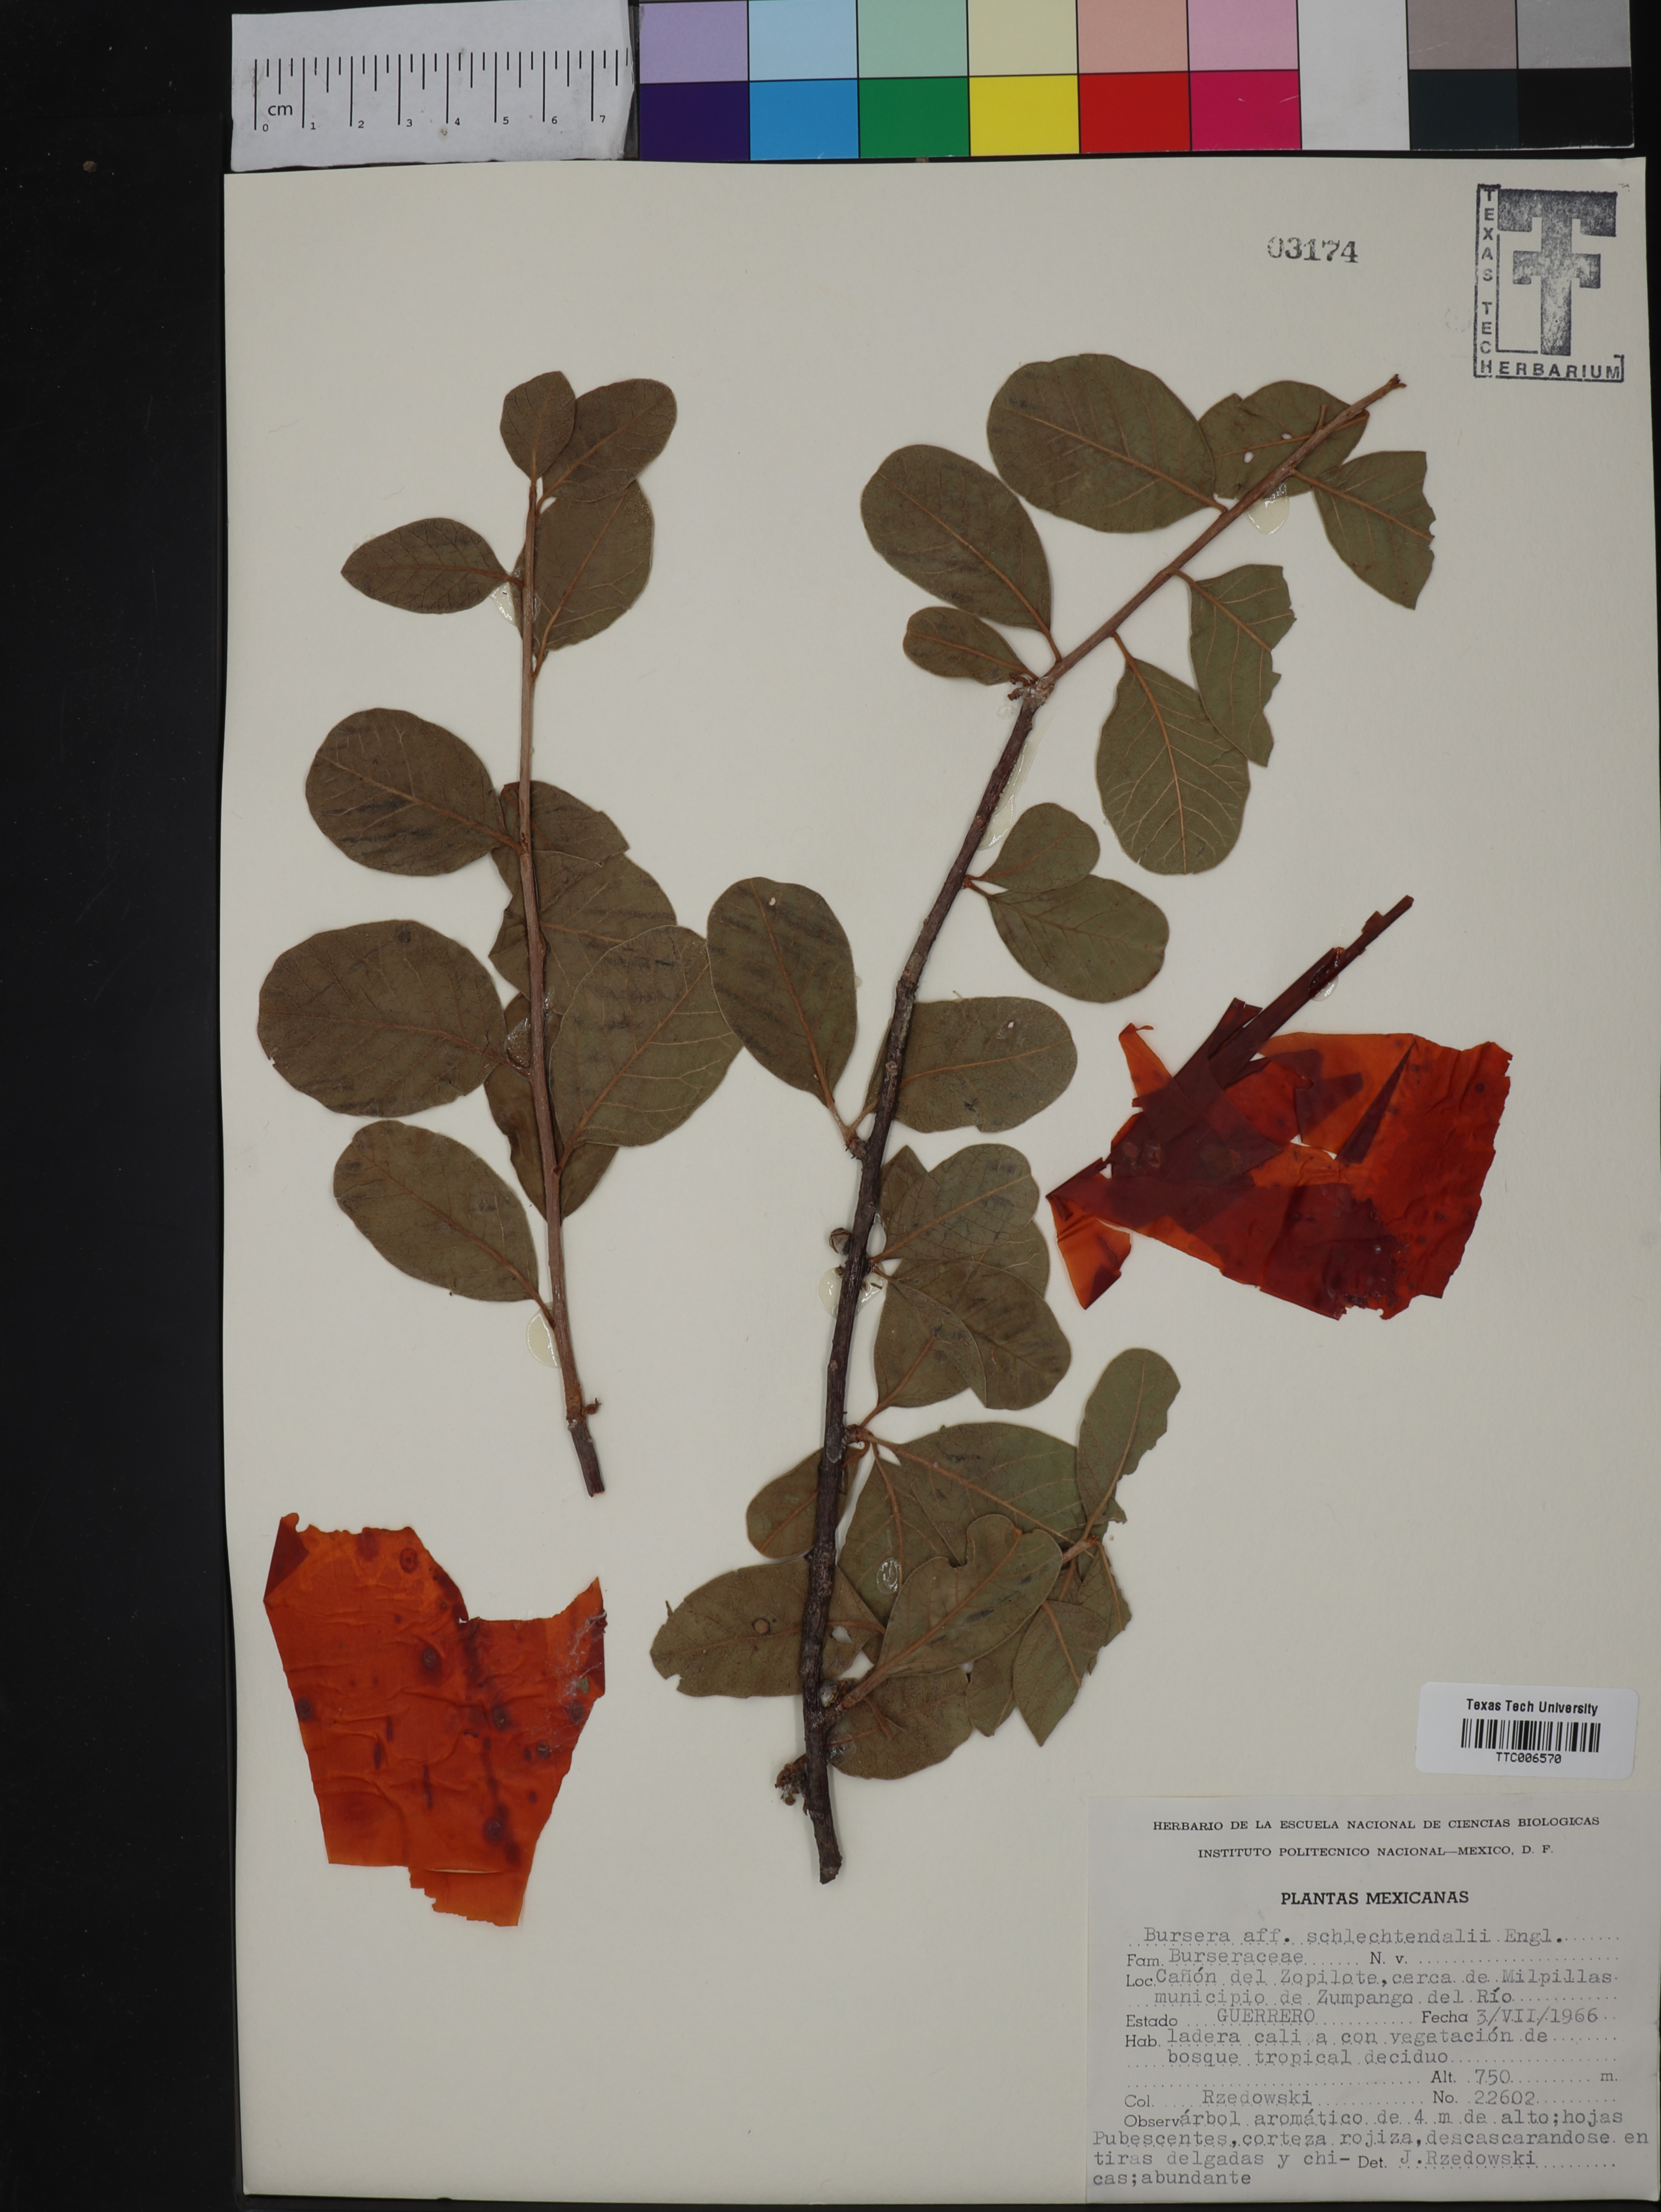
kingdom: Plantae
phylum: Tracheophyta
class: Magnoliopsida
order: Sapindales
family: Burseraceae
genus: Bursera
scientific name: Bursera schlechtendalii
